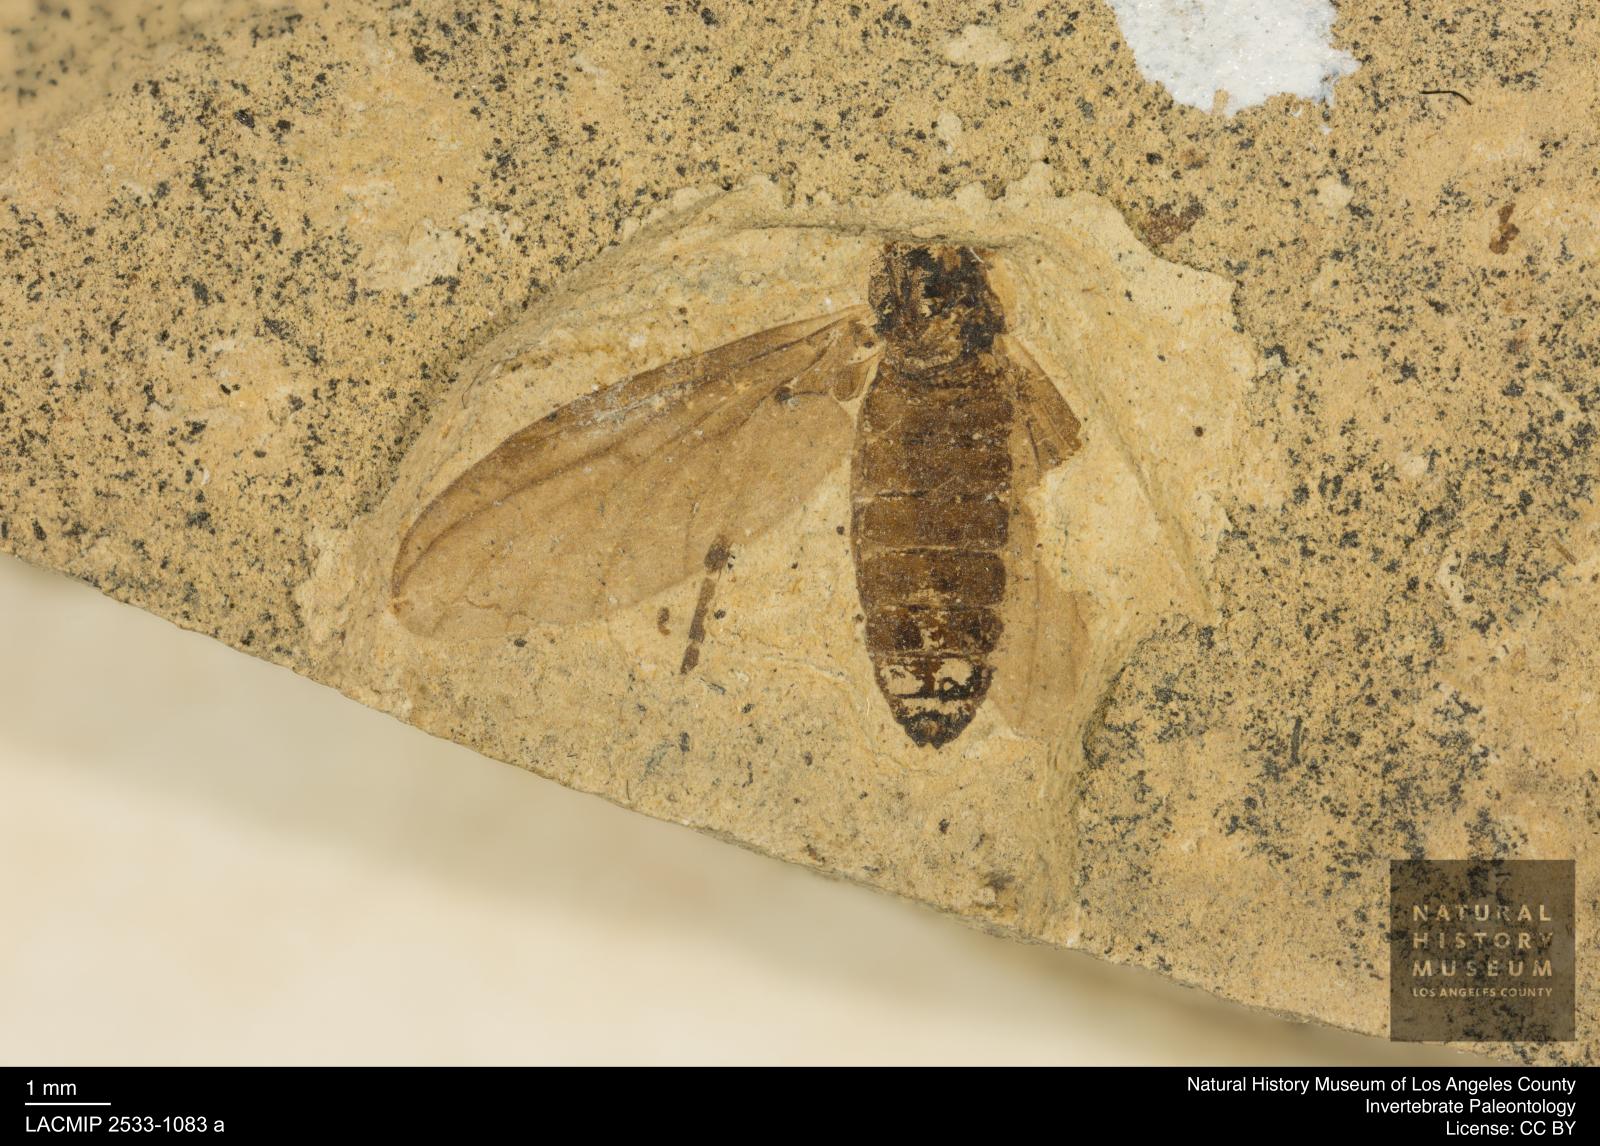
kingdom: Animalia
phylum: Arthropoda
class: Insecta
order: Diptera
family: Bibionidae
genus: Plecia
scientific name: Plecia hypogaea
